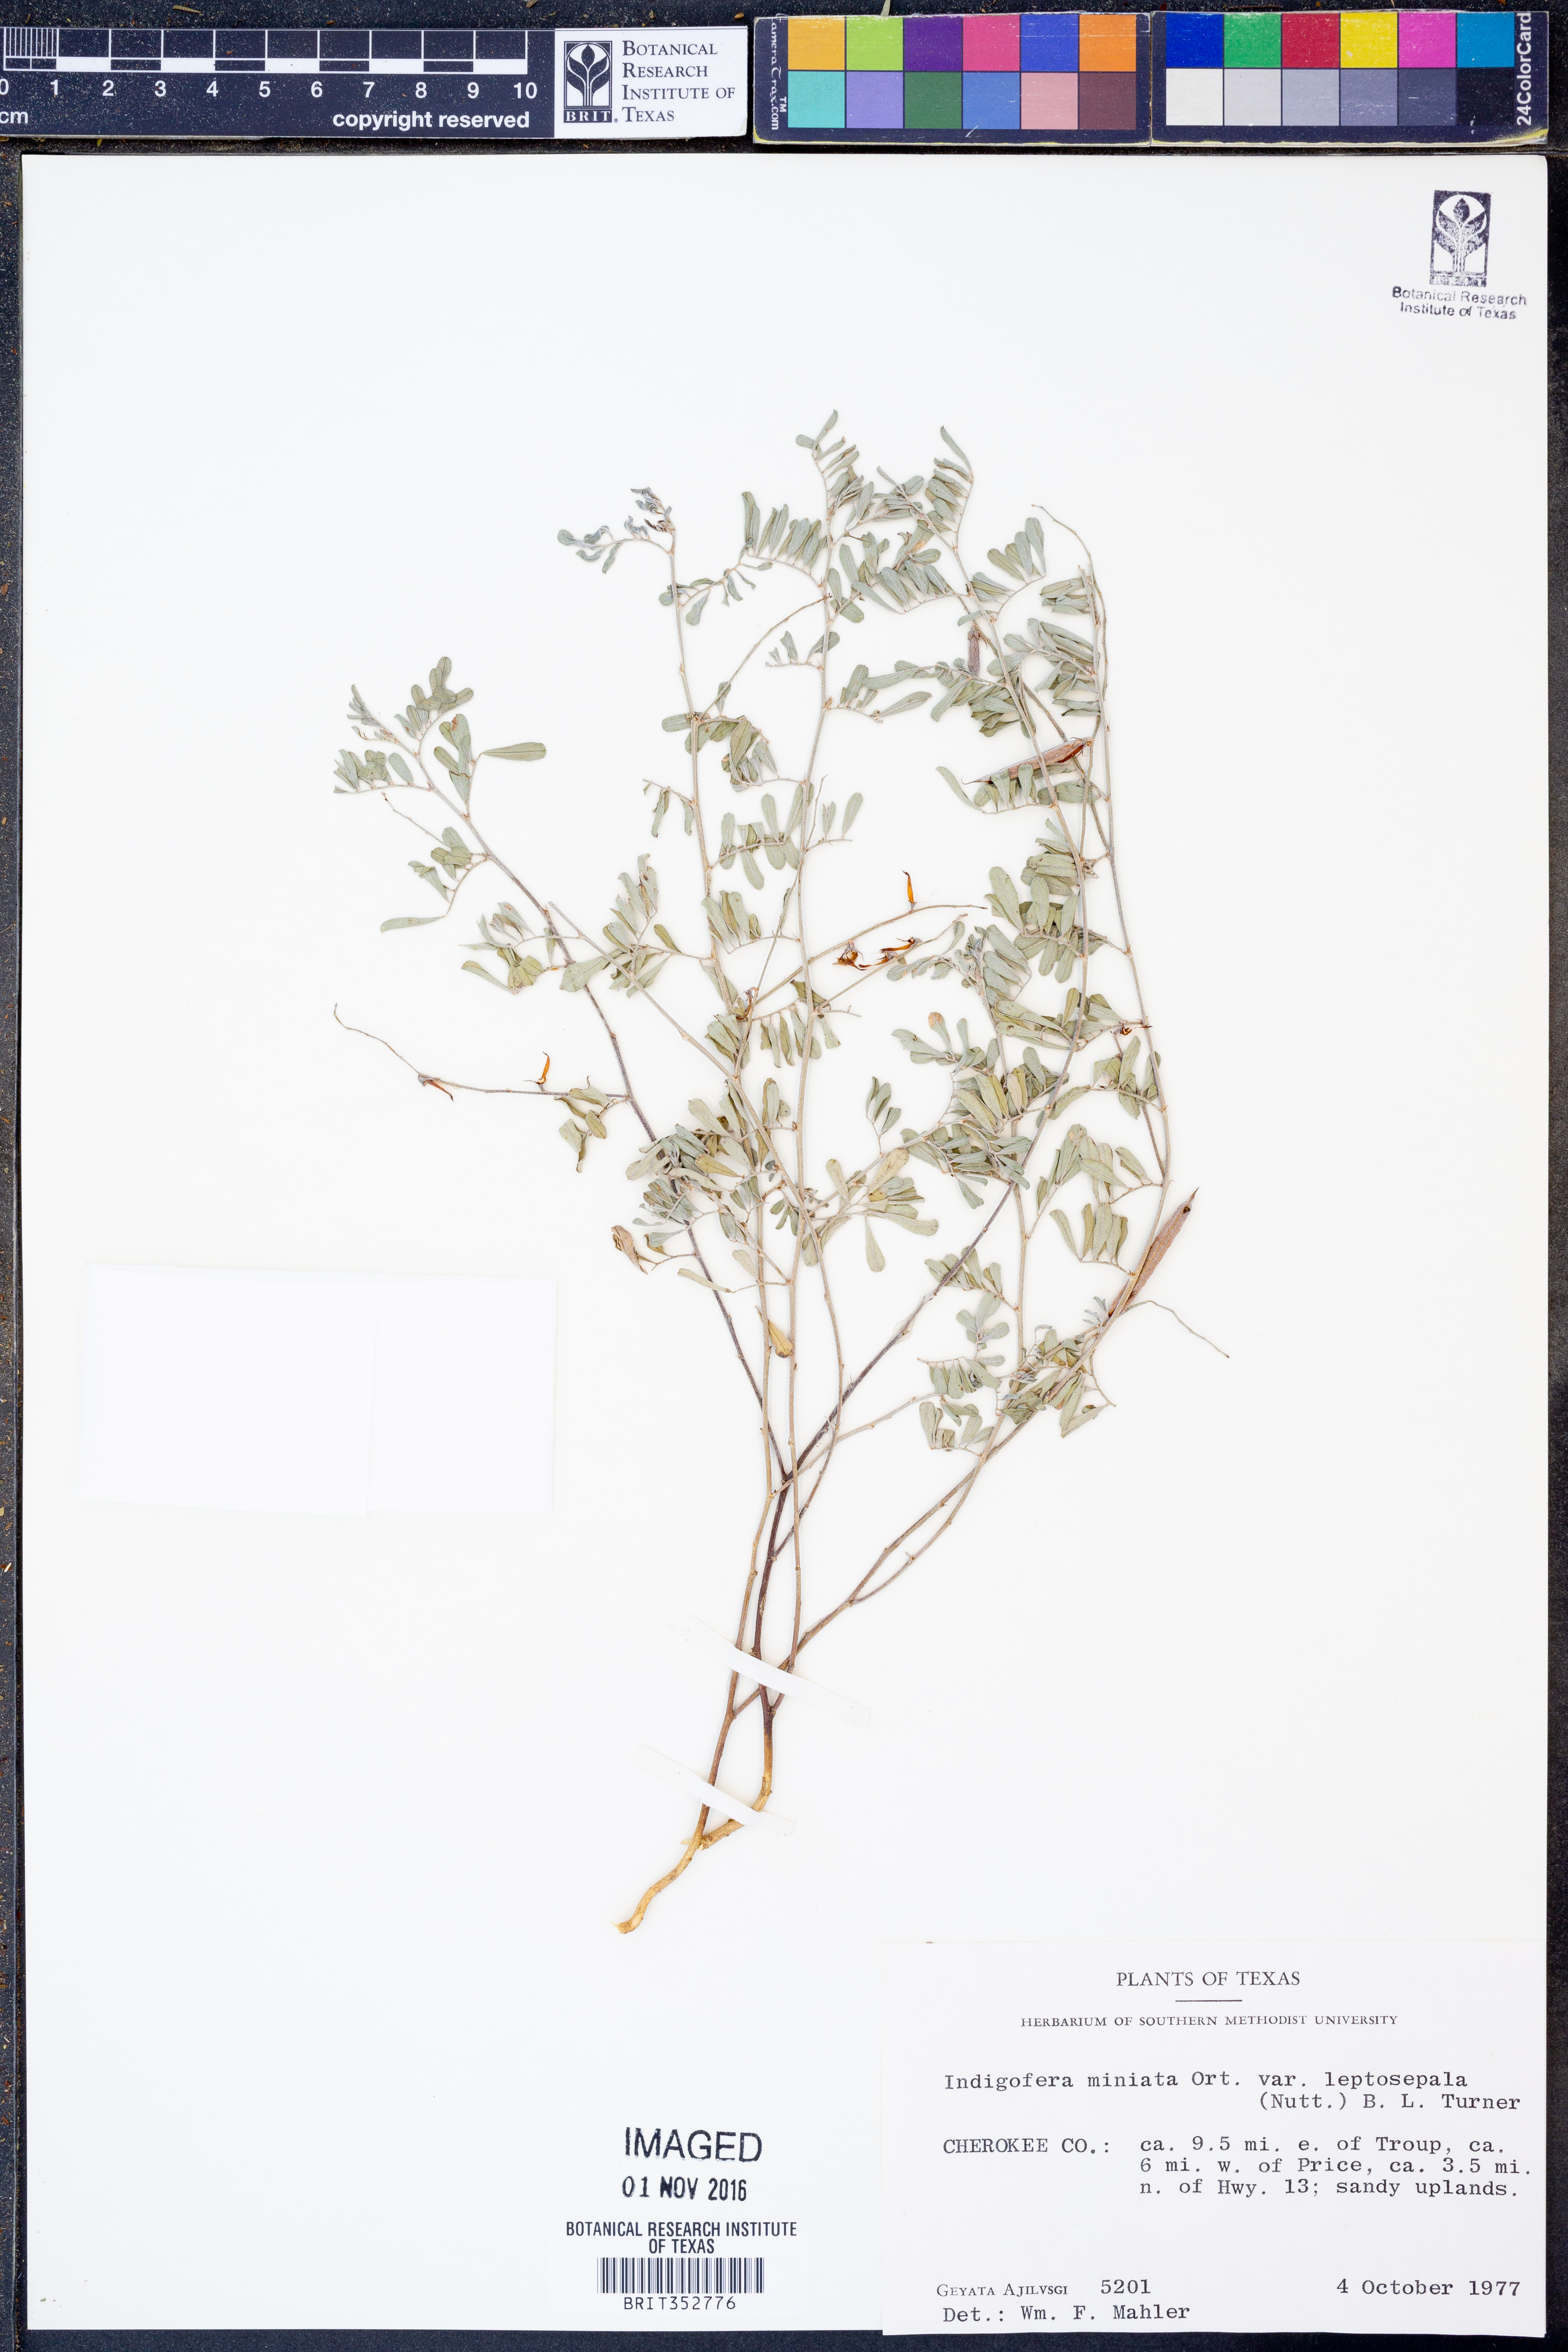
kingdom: Plantae
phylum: Tracheophyta
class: Magnoliopsida
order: Fabales
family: Fabaceae
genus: Indigofera
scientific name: Indigofera miniata
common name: Coast indigo
